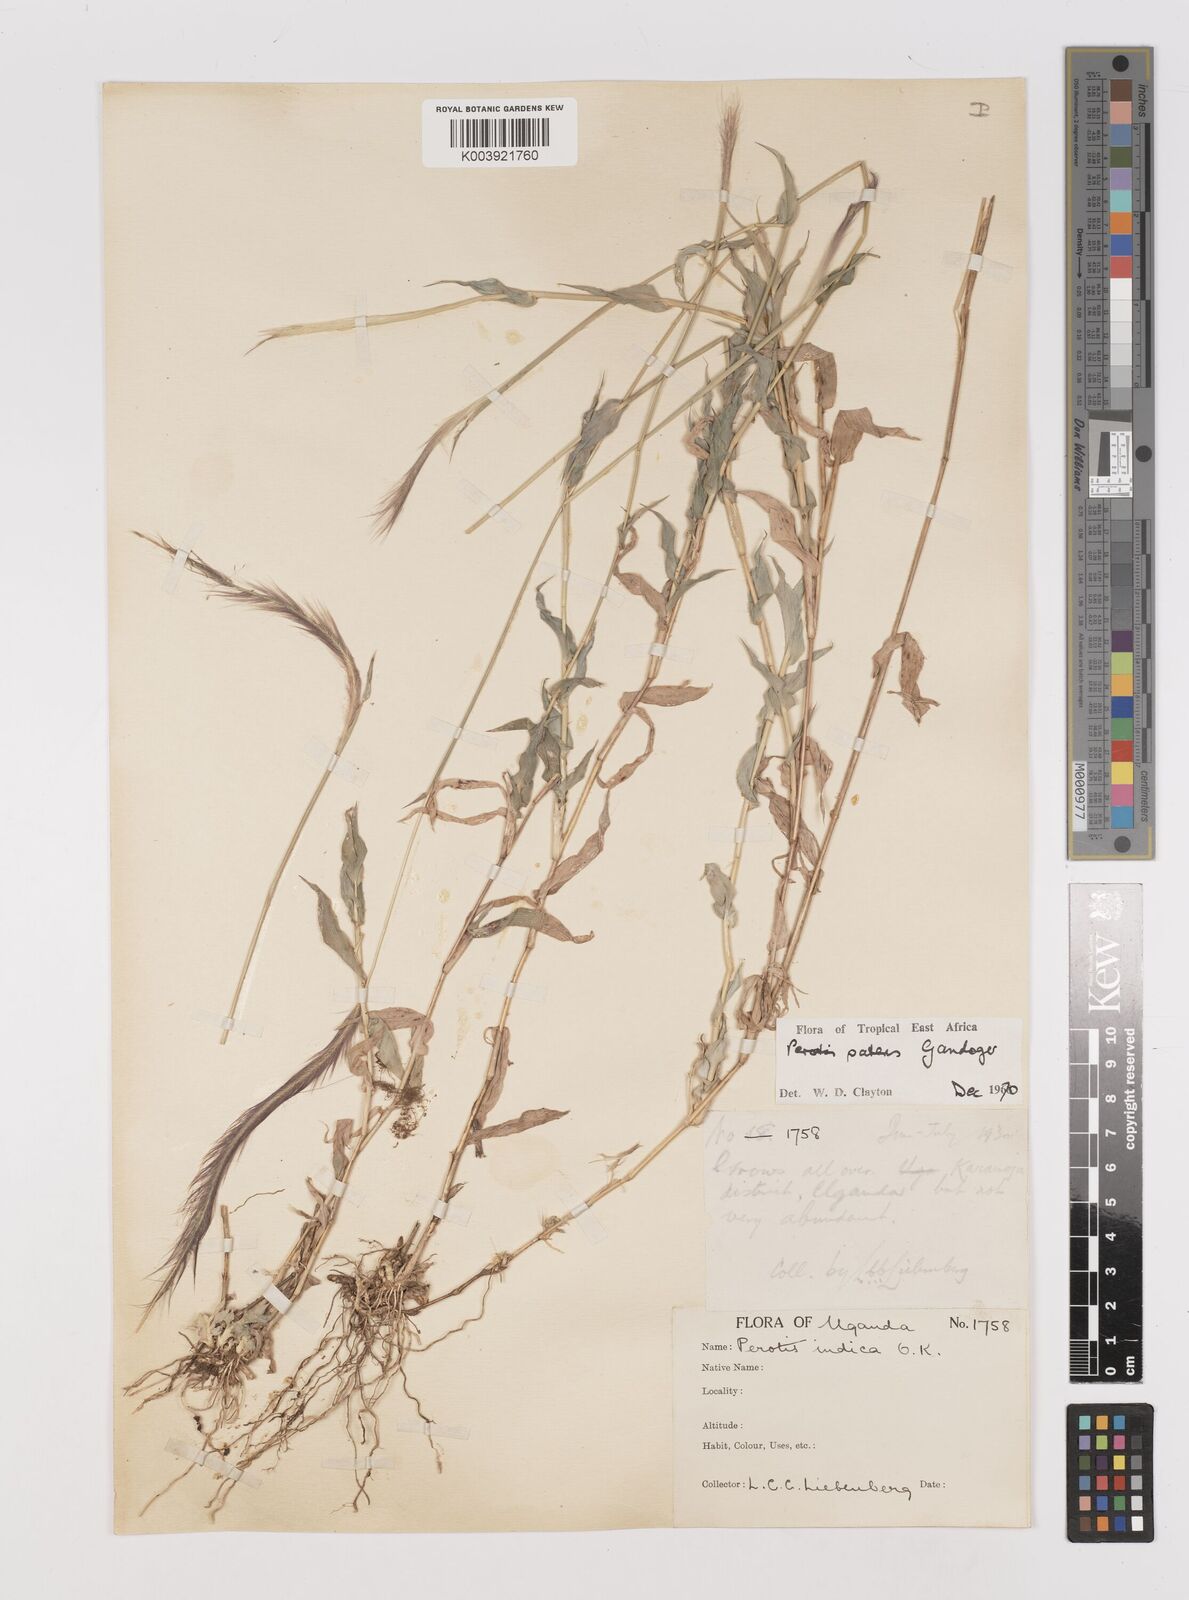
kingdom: Plantae
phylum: Tracheophyta
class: Liliopsida
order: Poales
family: Poaceae
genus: Perotis
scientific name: Perotis patens
